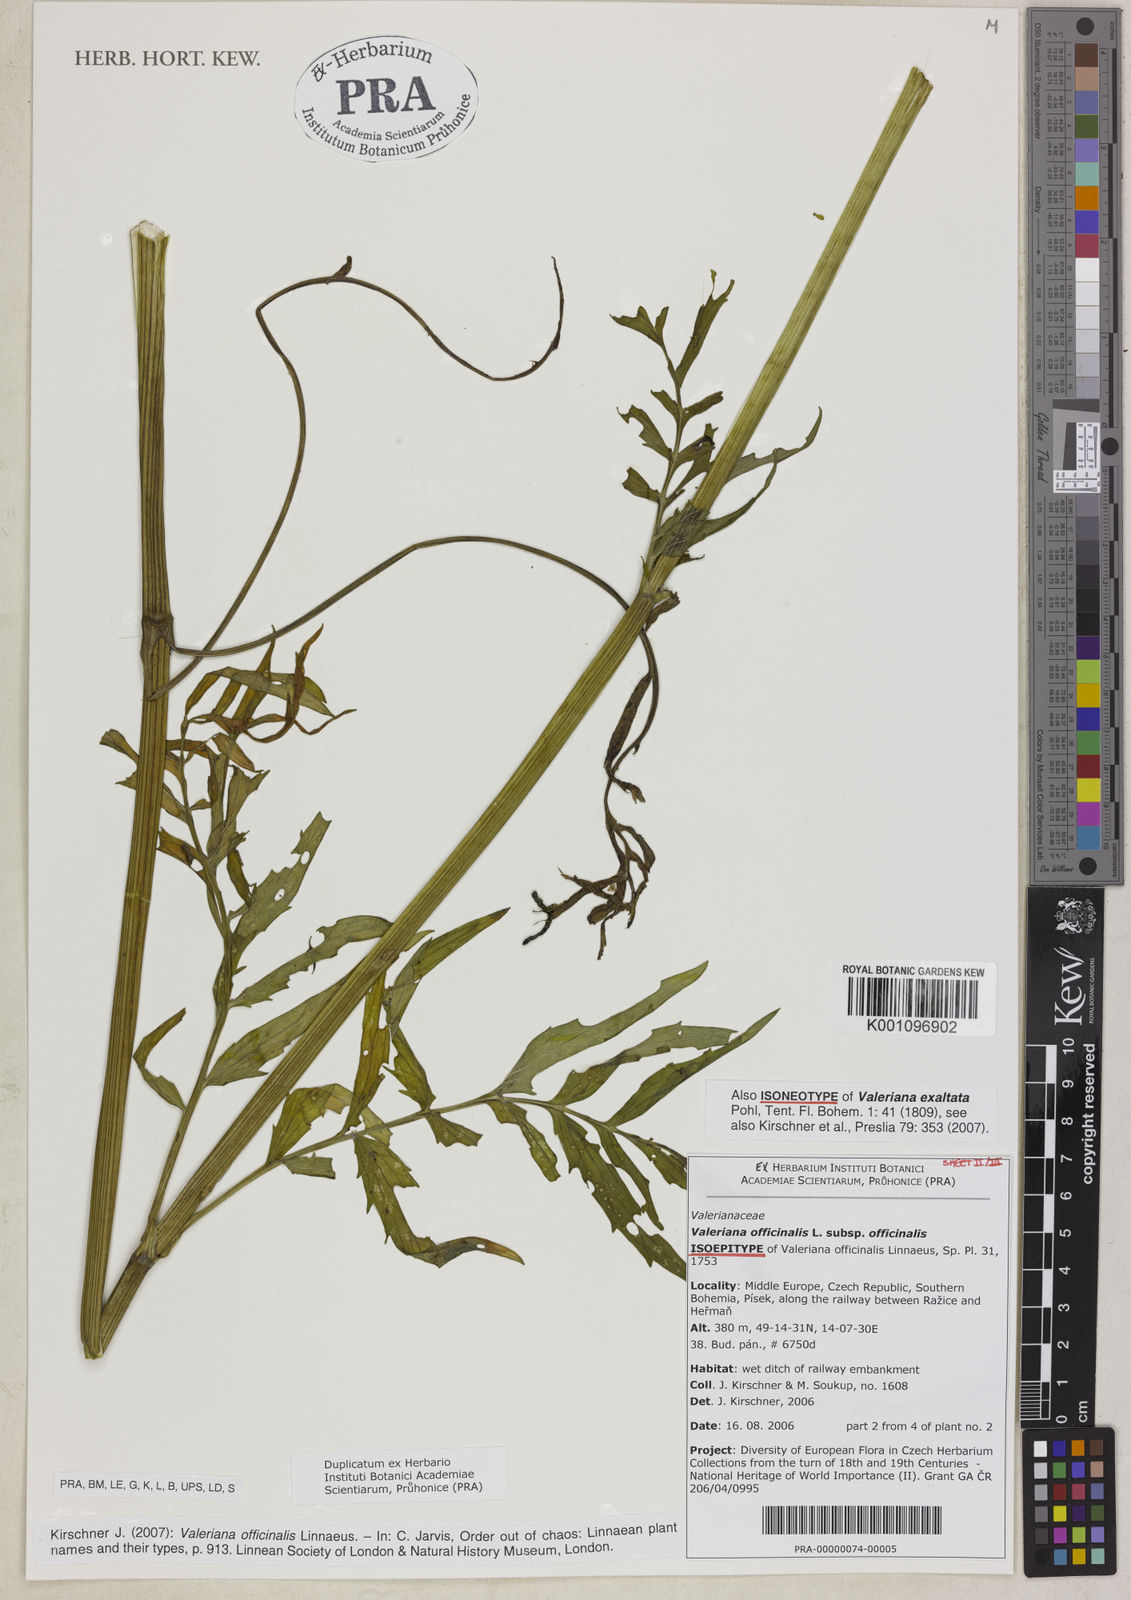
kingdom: Plantae
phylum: Tracheophyta
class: Magnoliopsida
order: Dipsacales
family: Caprifoliaceae
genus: Valeriana
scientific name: Valeriana officinalis
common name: Common valerian
